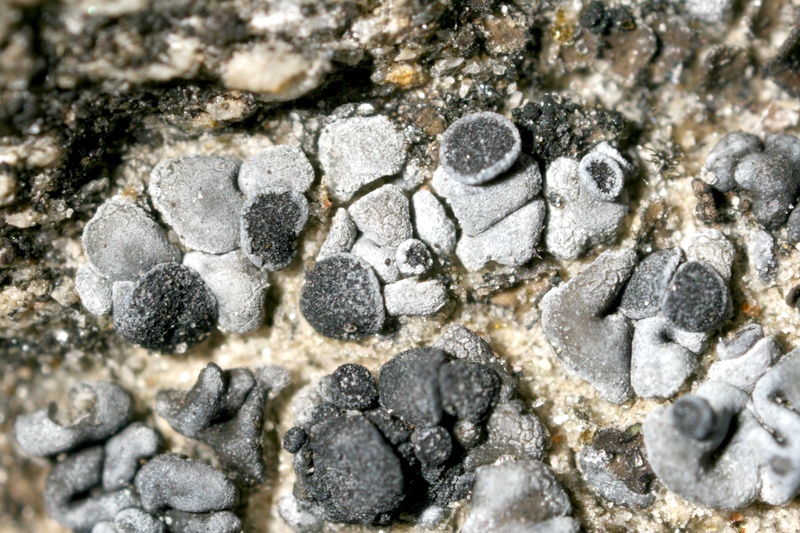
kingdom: Fungi
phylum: Ascomycota
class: Lecanoromycetes
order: Lecanorales
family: Ramalinaceae
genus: Thalloidima
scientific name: Thalloidima sedifolium
